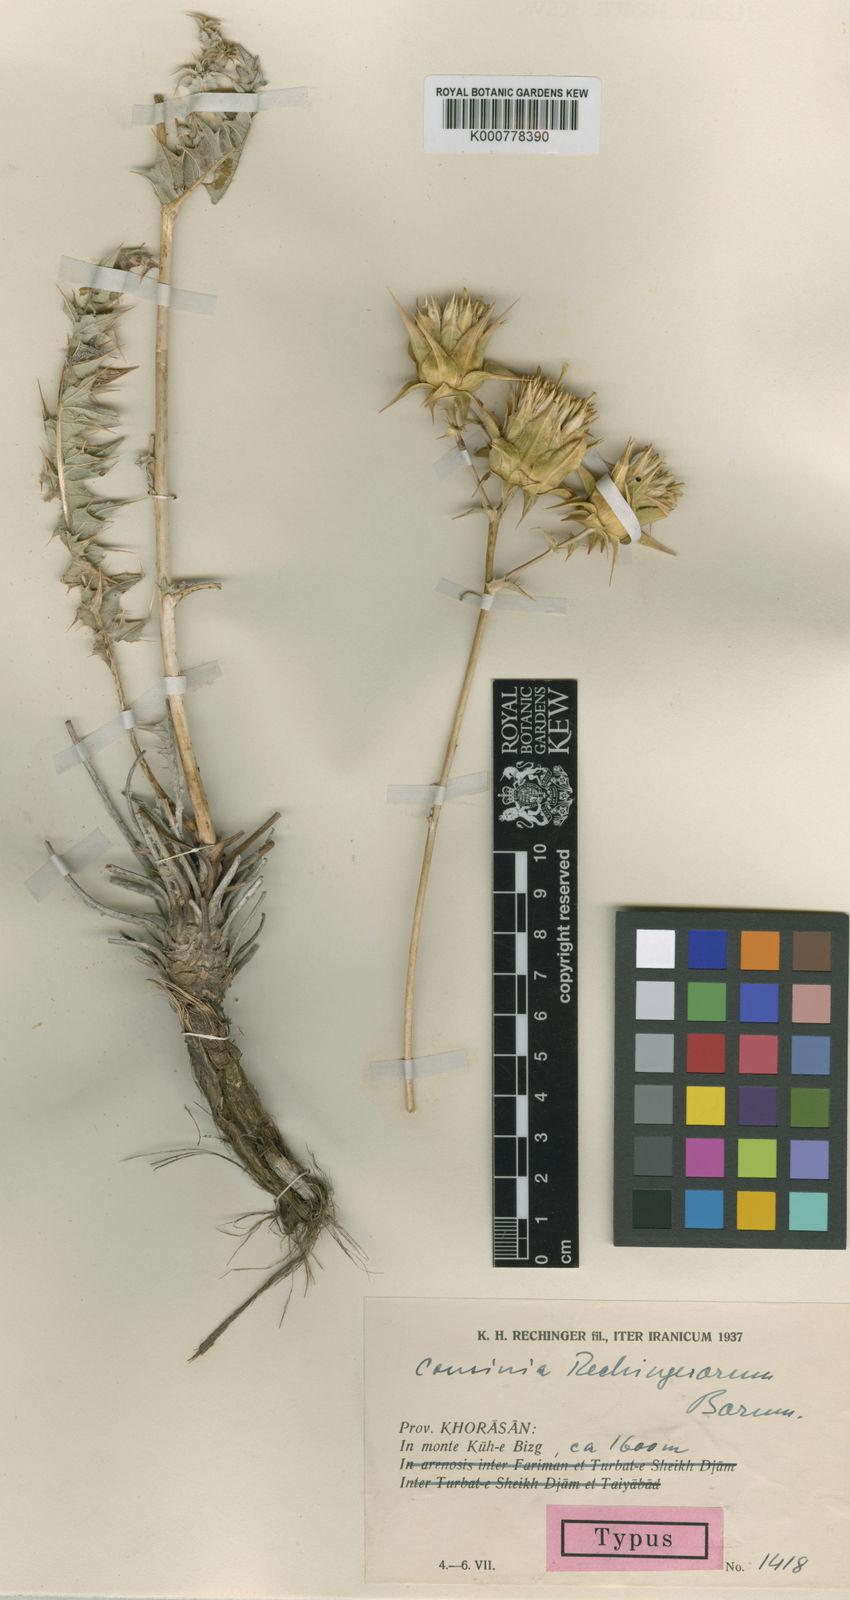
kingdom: Plantae
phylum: Tracheophyta
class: Magnoliopsida
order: Asterales
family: Asteraceae
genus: Cousinia
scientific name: Cousinia rechingerorum
